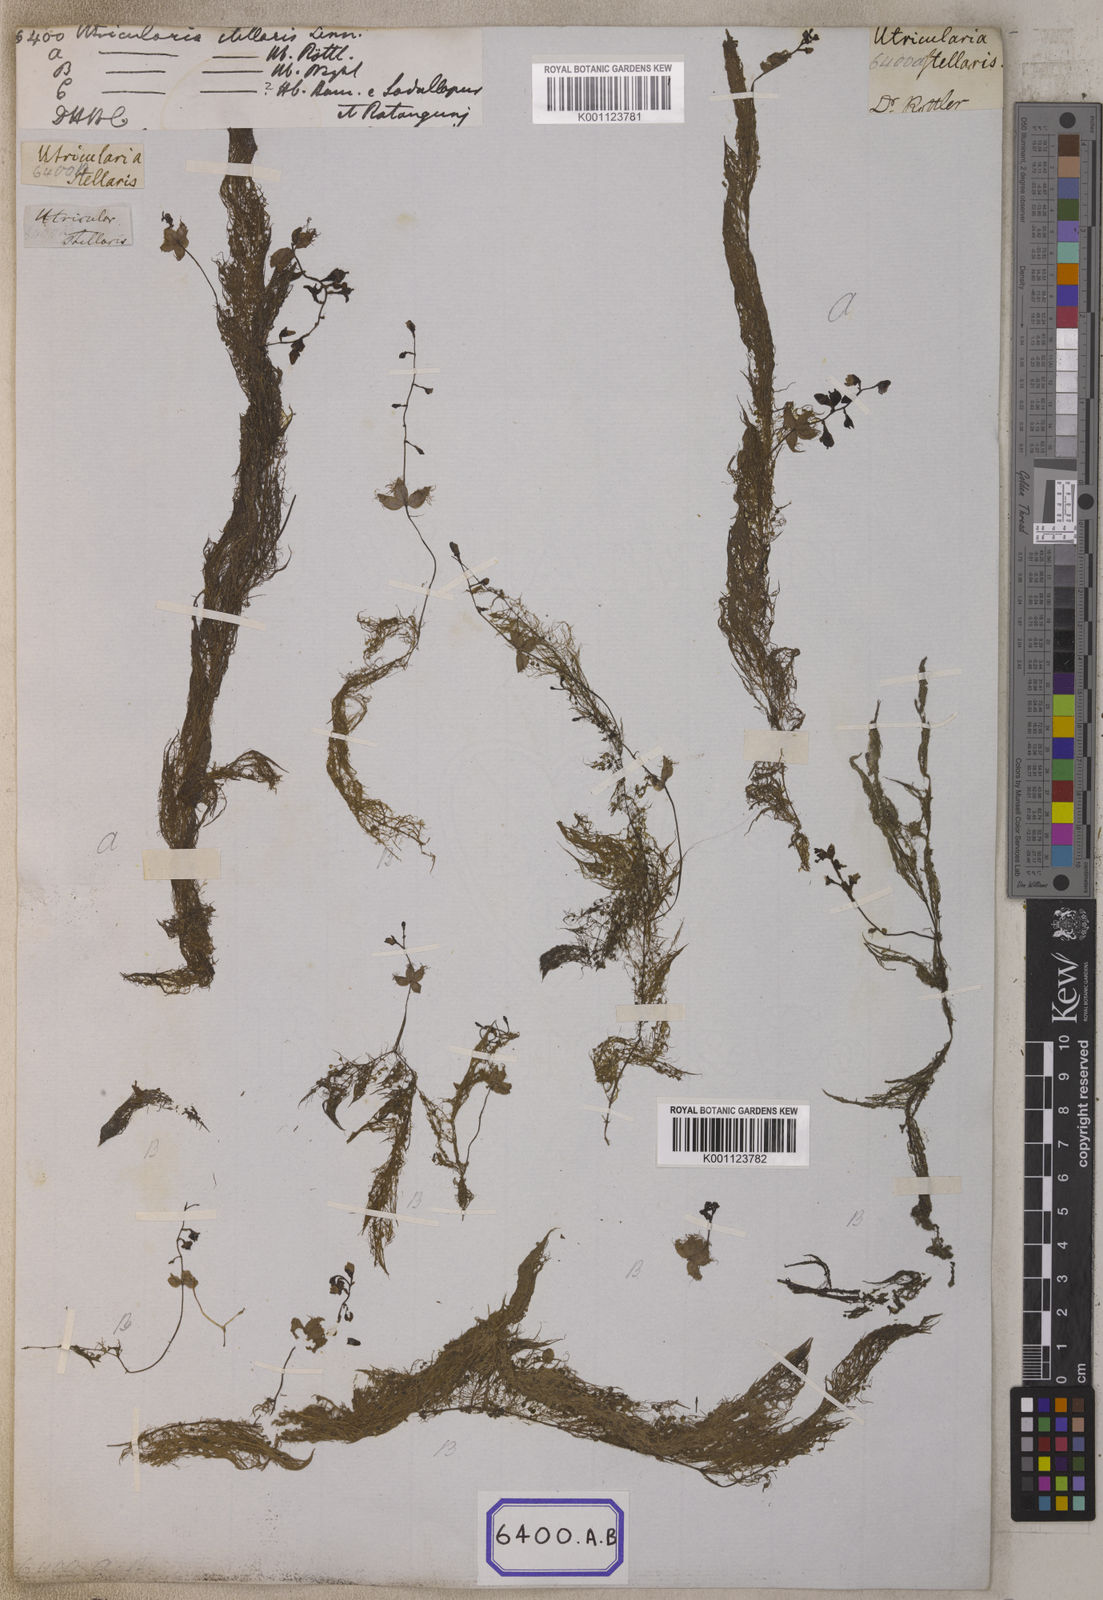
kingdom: Plantae
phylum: Tracheophyta
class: Magnoliopsida
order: Lamiales
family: Lentibulariaceae
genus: Utricularia
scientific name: Utricularia stellaris
